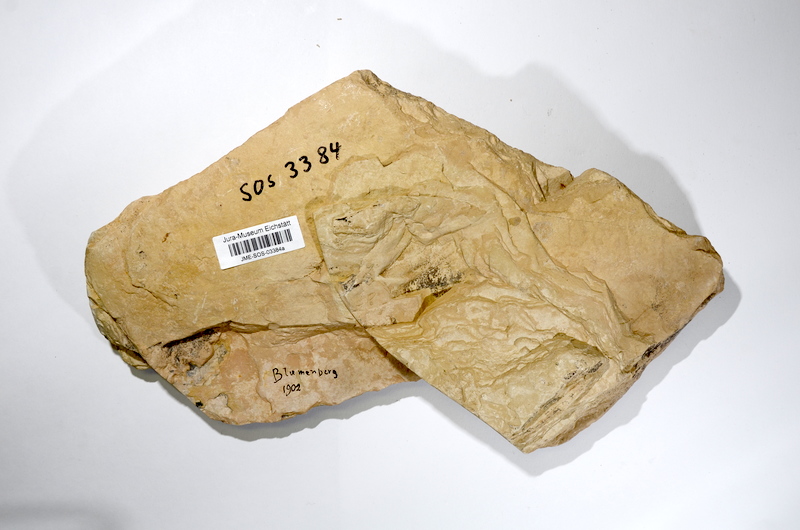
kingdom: Animalia
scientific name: Animalia
